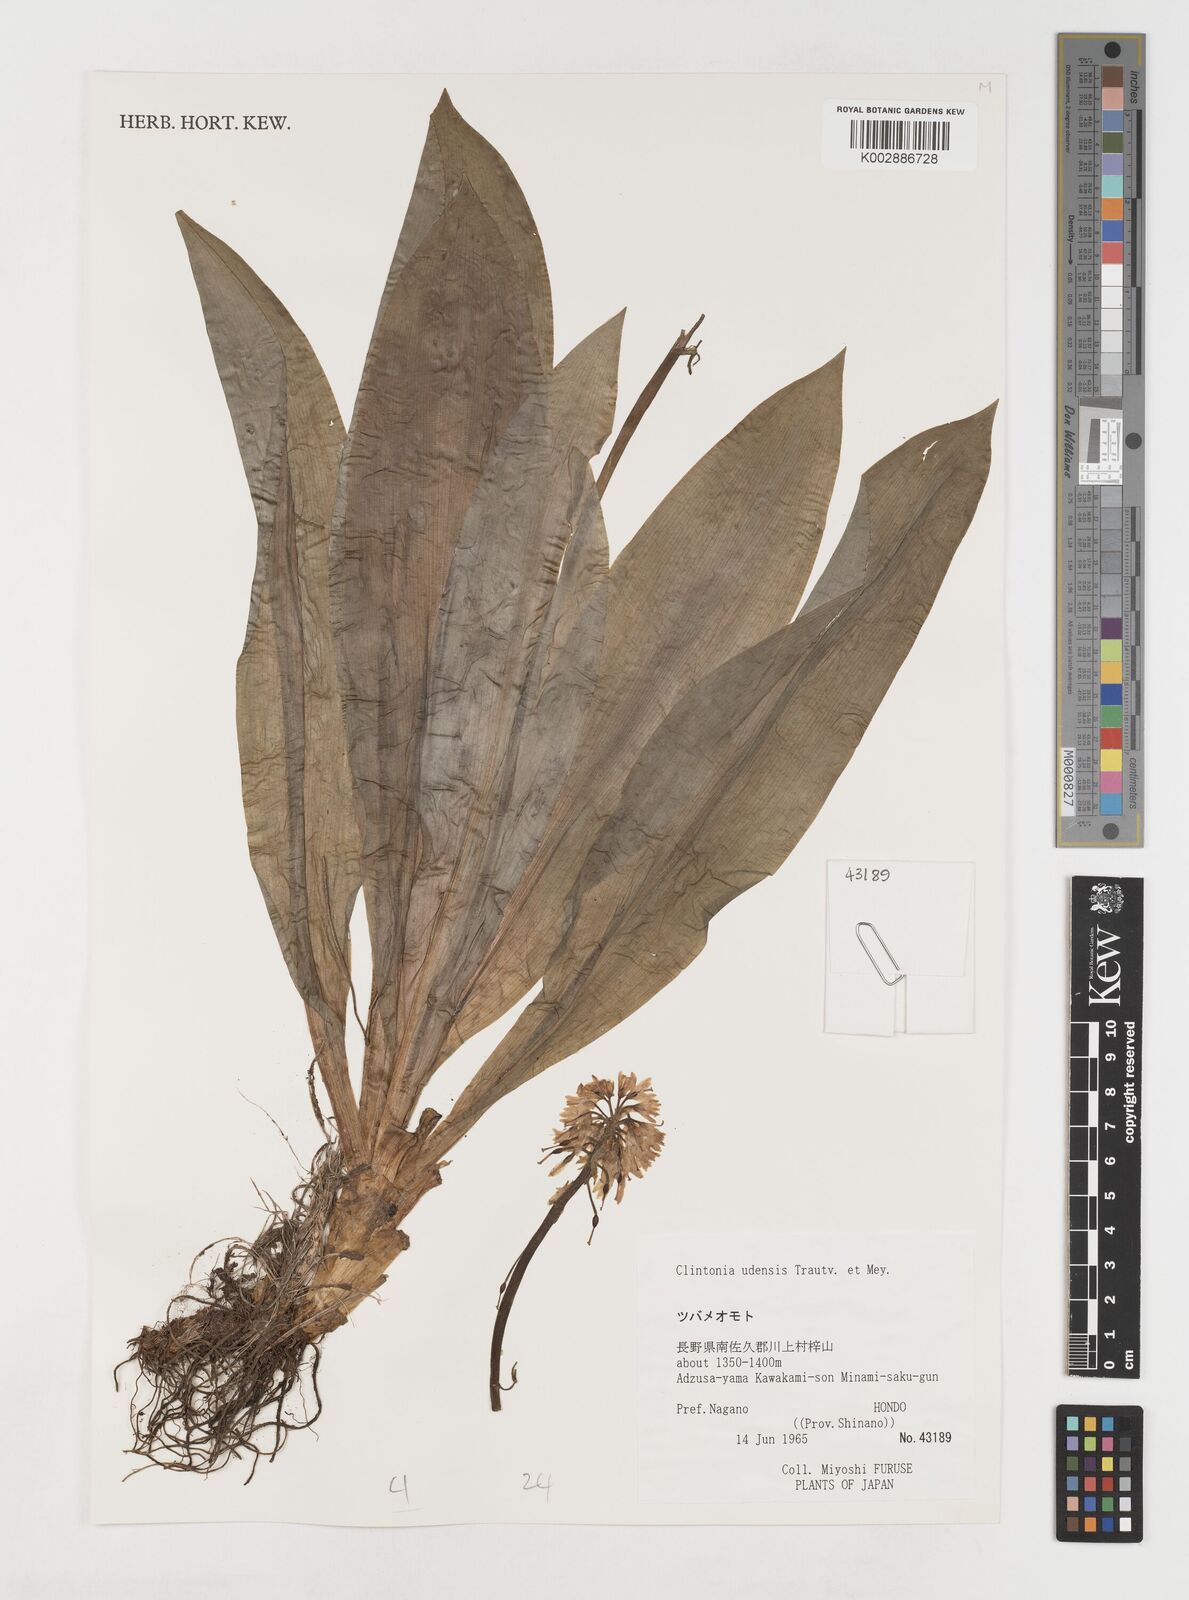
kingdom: Plantae
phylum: Tracheophyta
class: Liliopsida
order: Liliales
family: Liliaceae
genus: Clintonia
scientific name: Clintonia udensis
